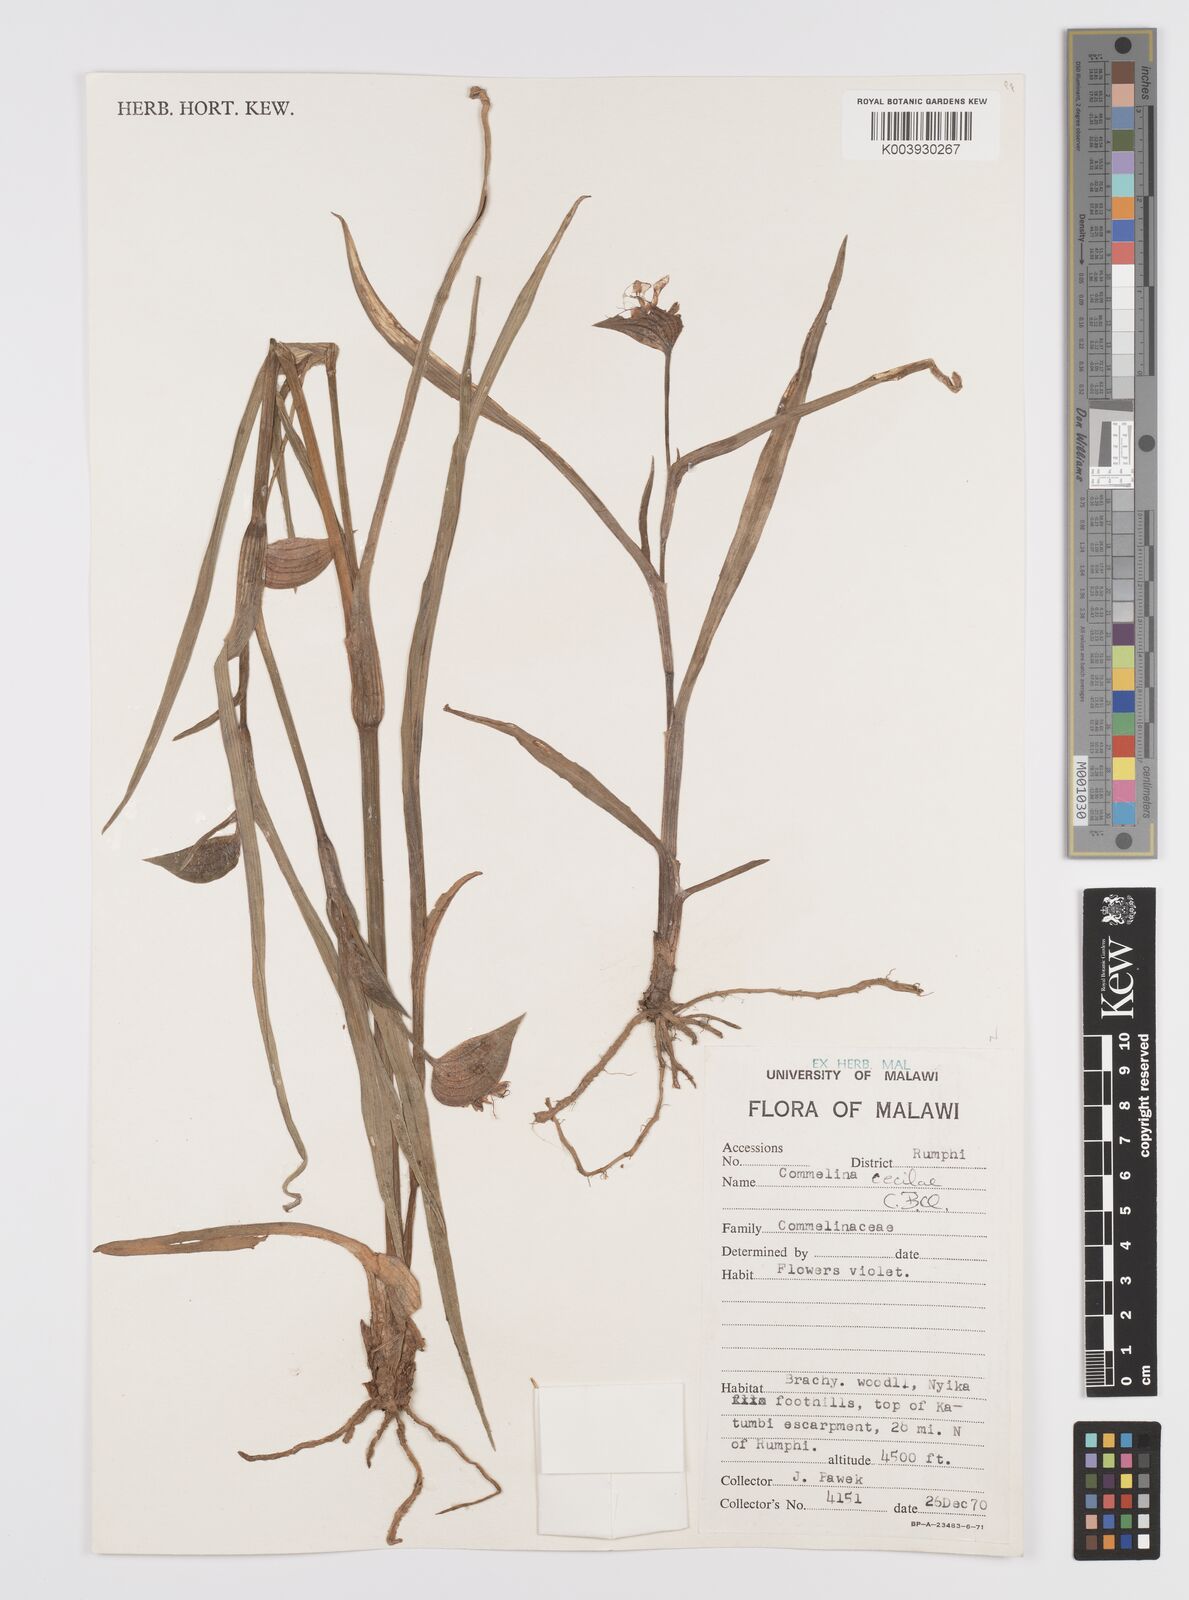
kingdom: Plantae
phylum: Tracheophyta
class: Liliopsida
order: Commelinales
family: Commelinaceae
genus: Commelina
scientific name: Commelina schweinfurthii
